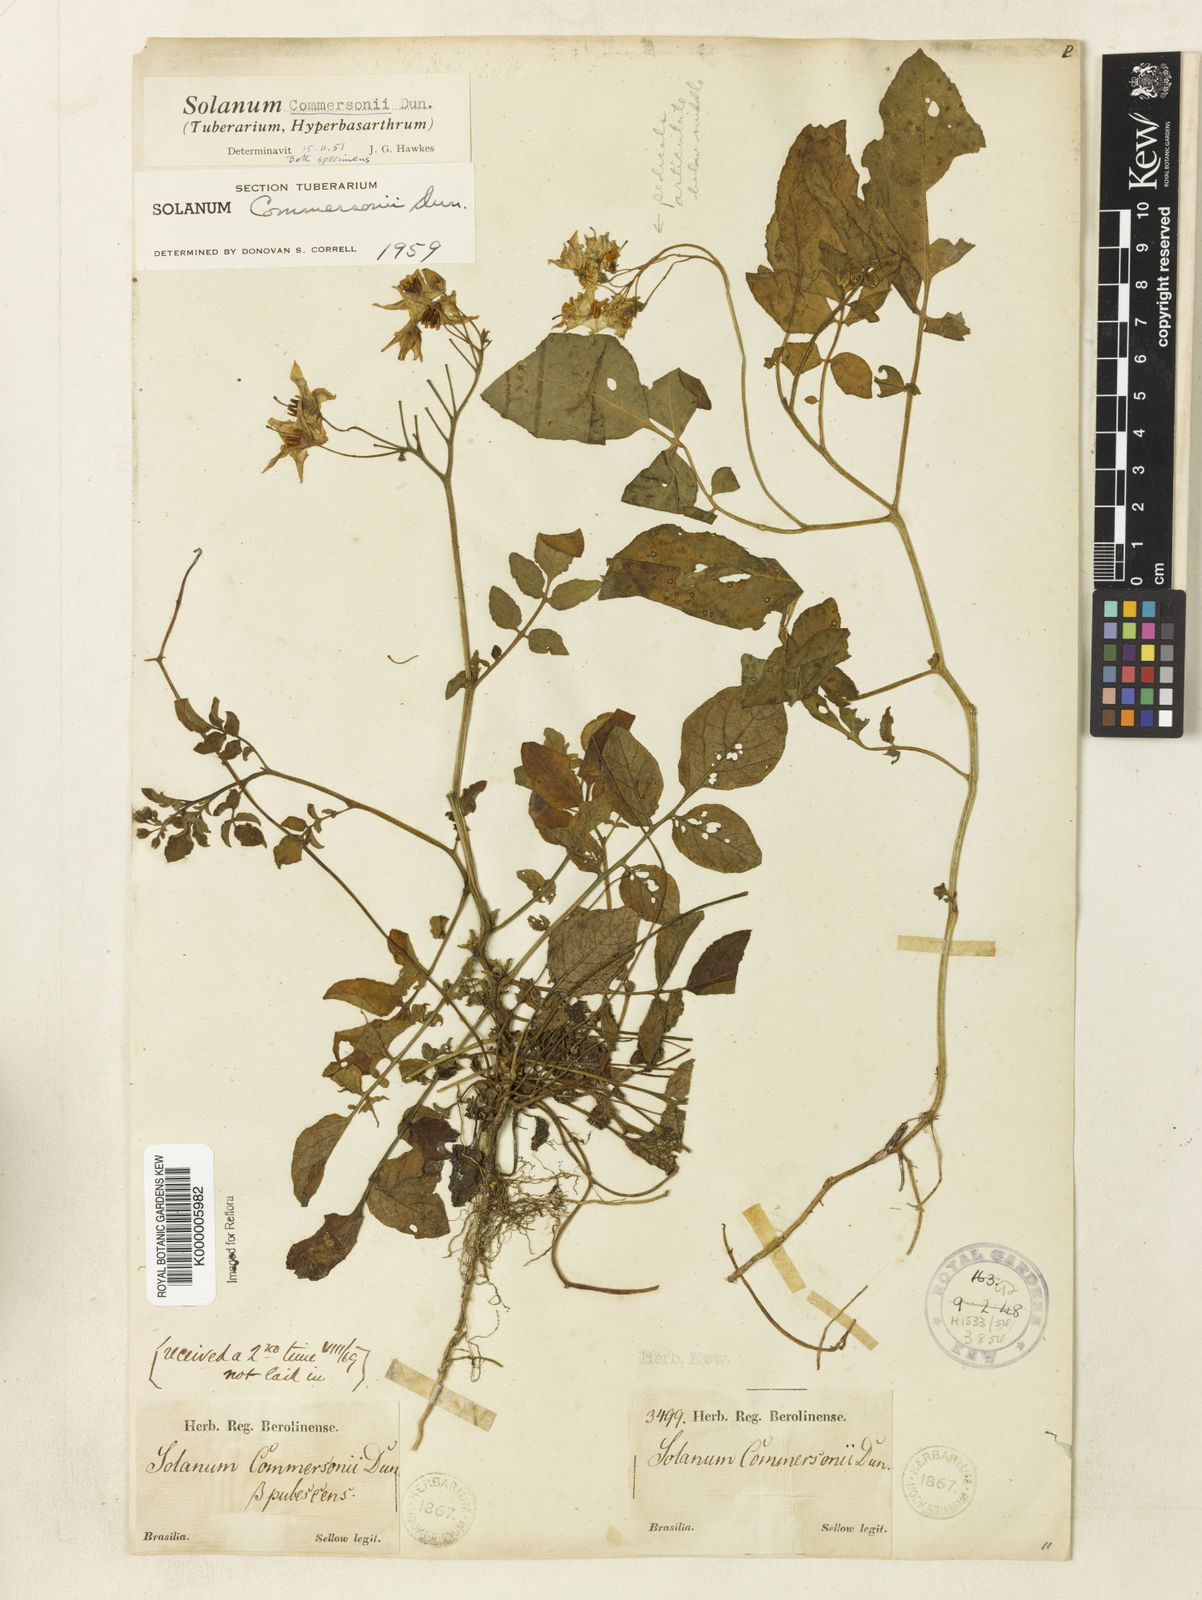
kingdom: Plantae
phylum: Tracheophyta
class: Magnoliopsida
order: Solanales
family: Solanaceae
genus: Solanum
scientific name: Solanum commersonii
